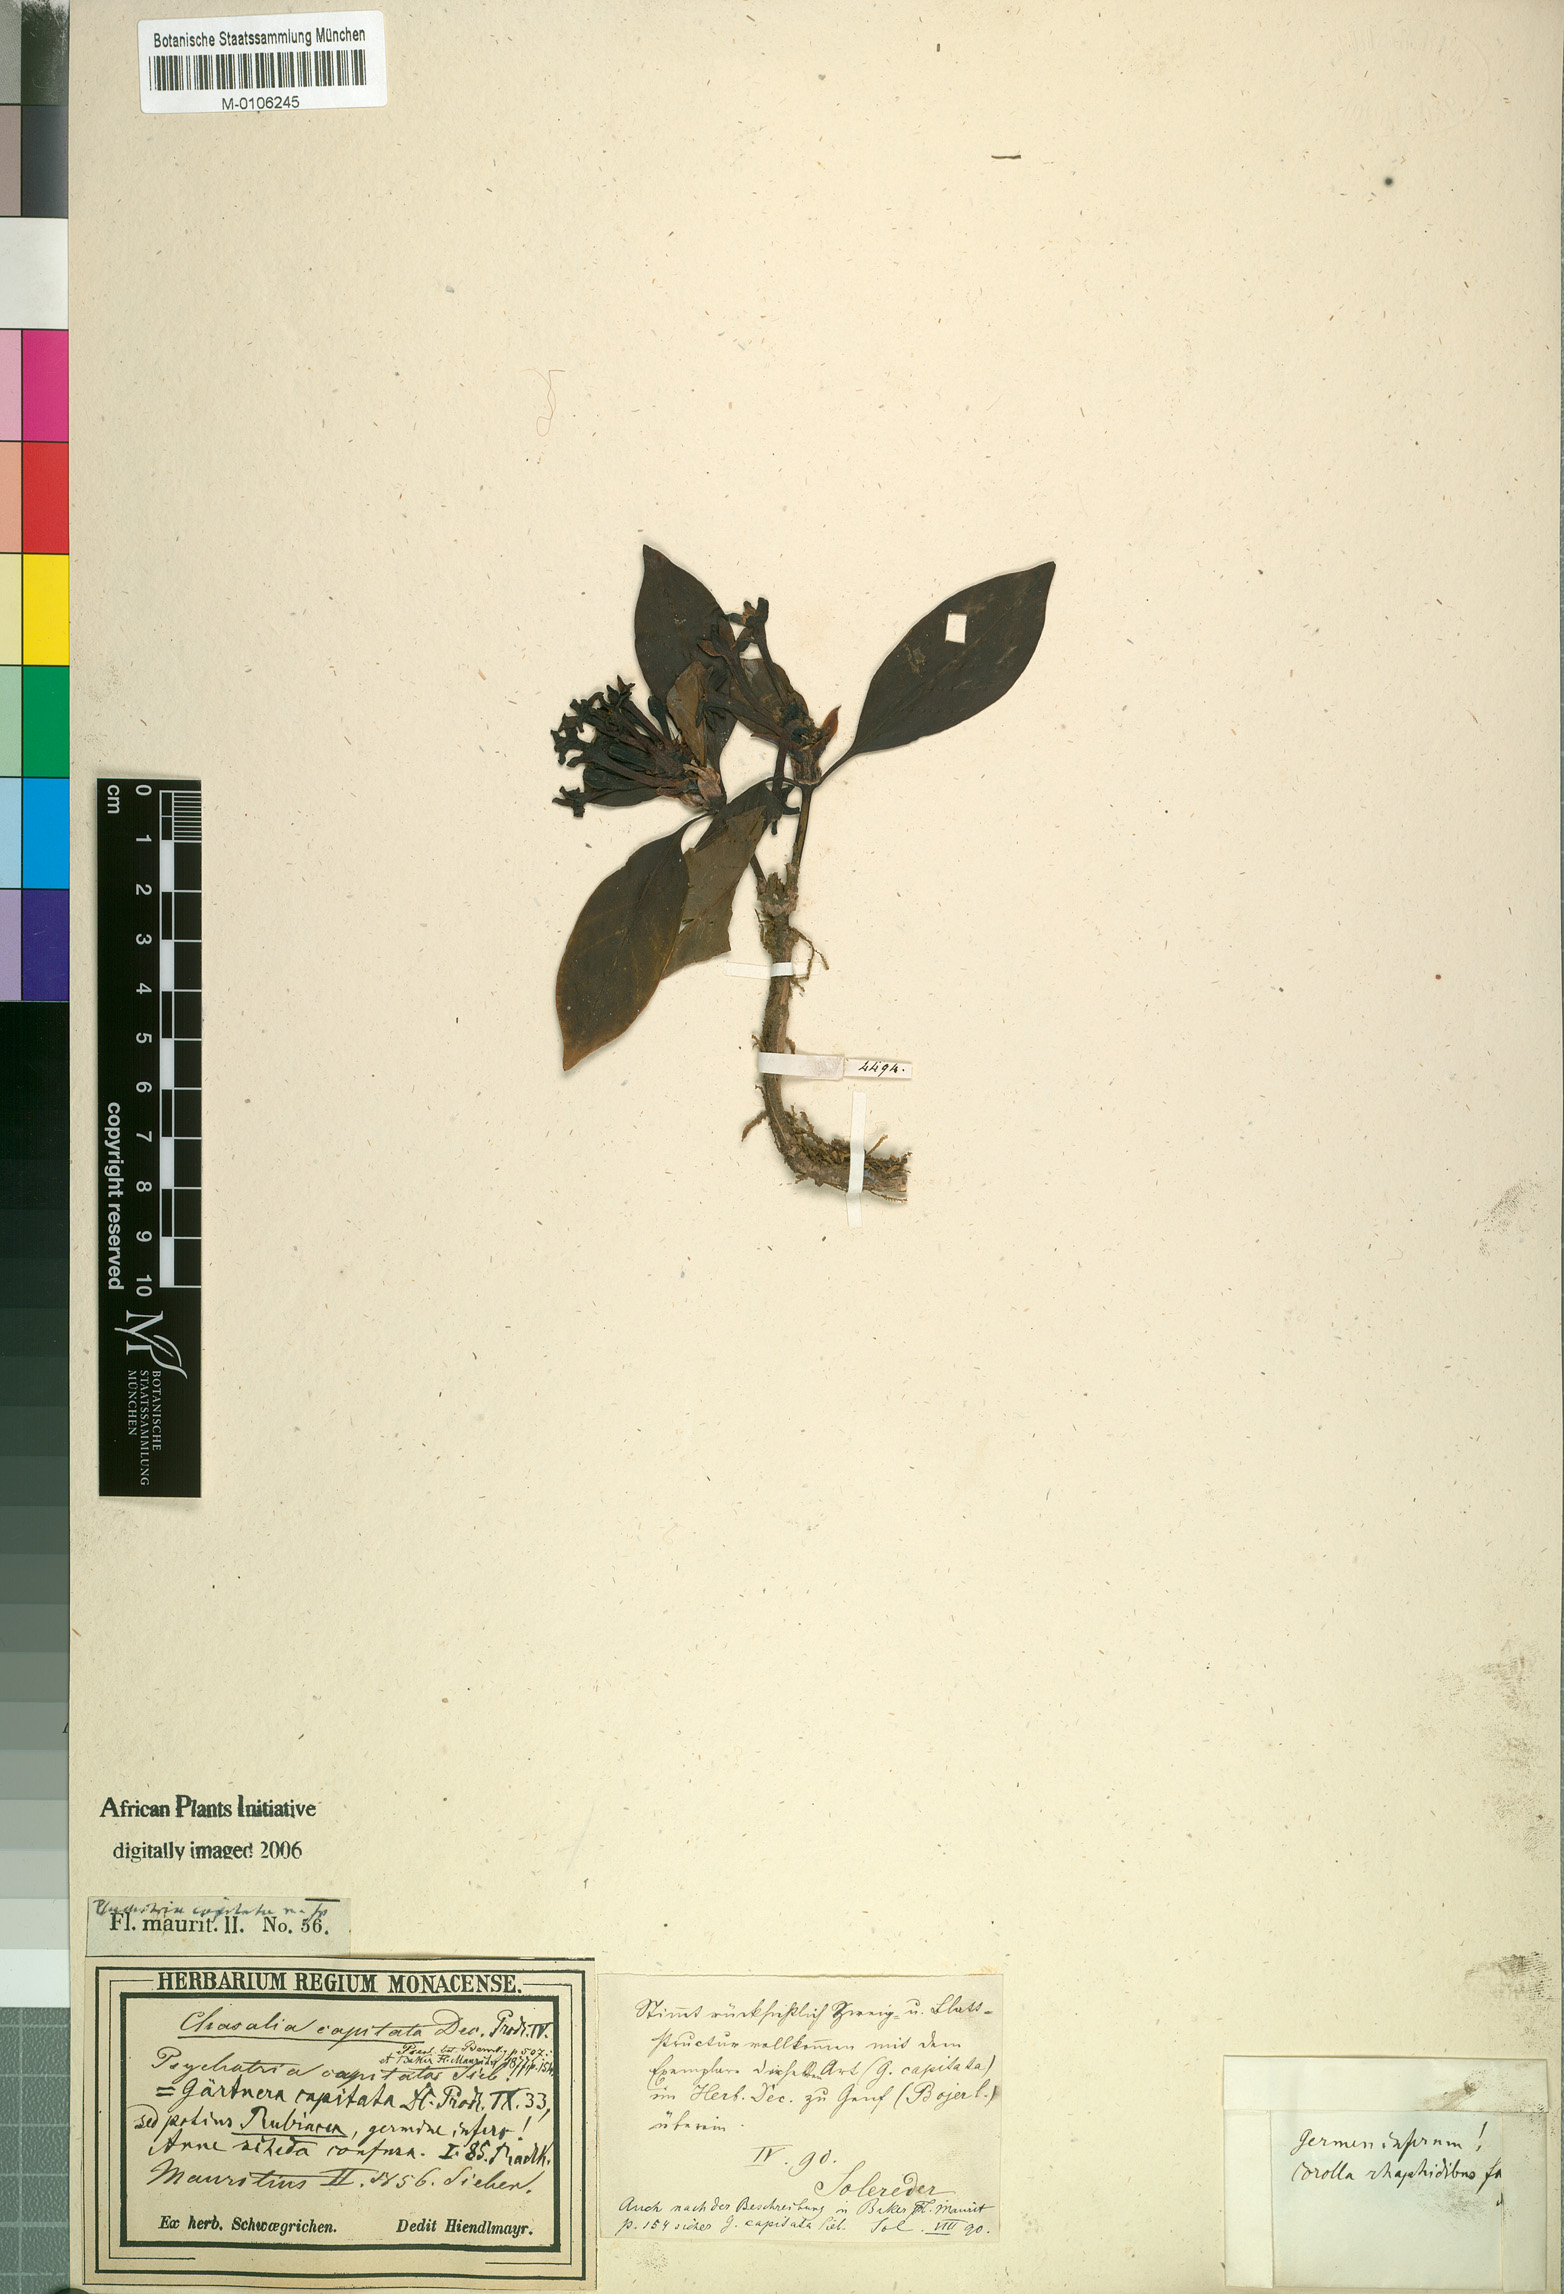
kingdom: Plantae
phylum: Tracheophyta
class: Magnoliopsida
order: Gentianales
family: Rubiaceae
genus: Chassalia
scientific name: Chassalia capitata
